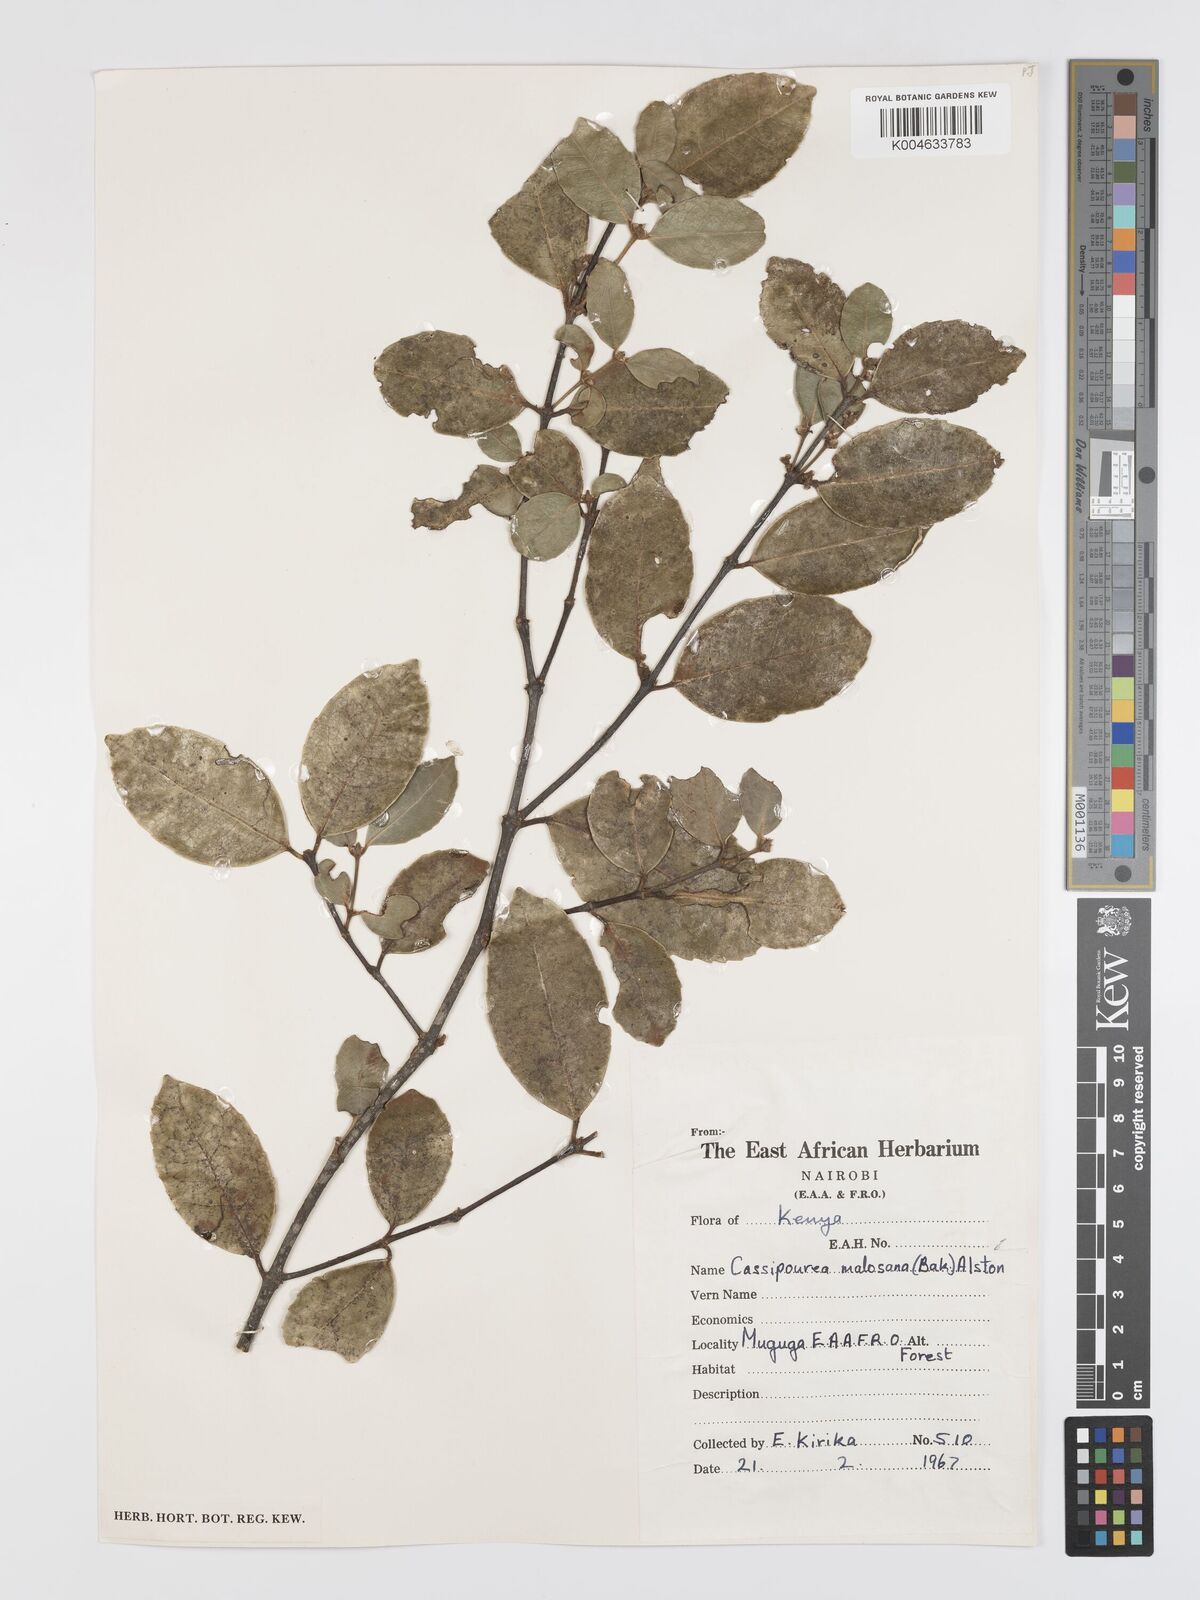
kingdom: Plantae
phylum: Tracheophyta
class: Magnoliopsida
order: Malpighiales
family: Rhizophoraceae
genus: Cassipourea
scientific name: Cassipourea malosana
